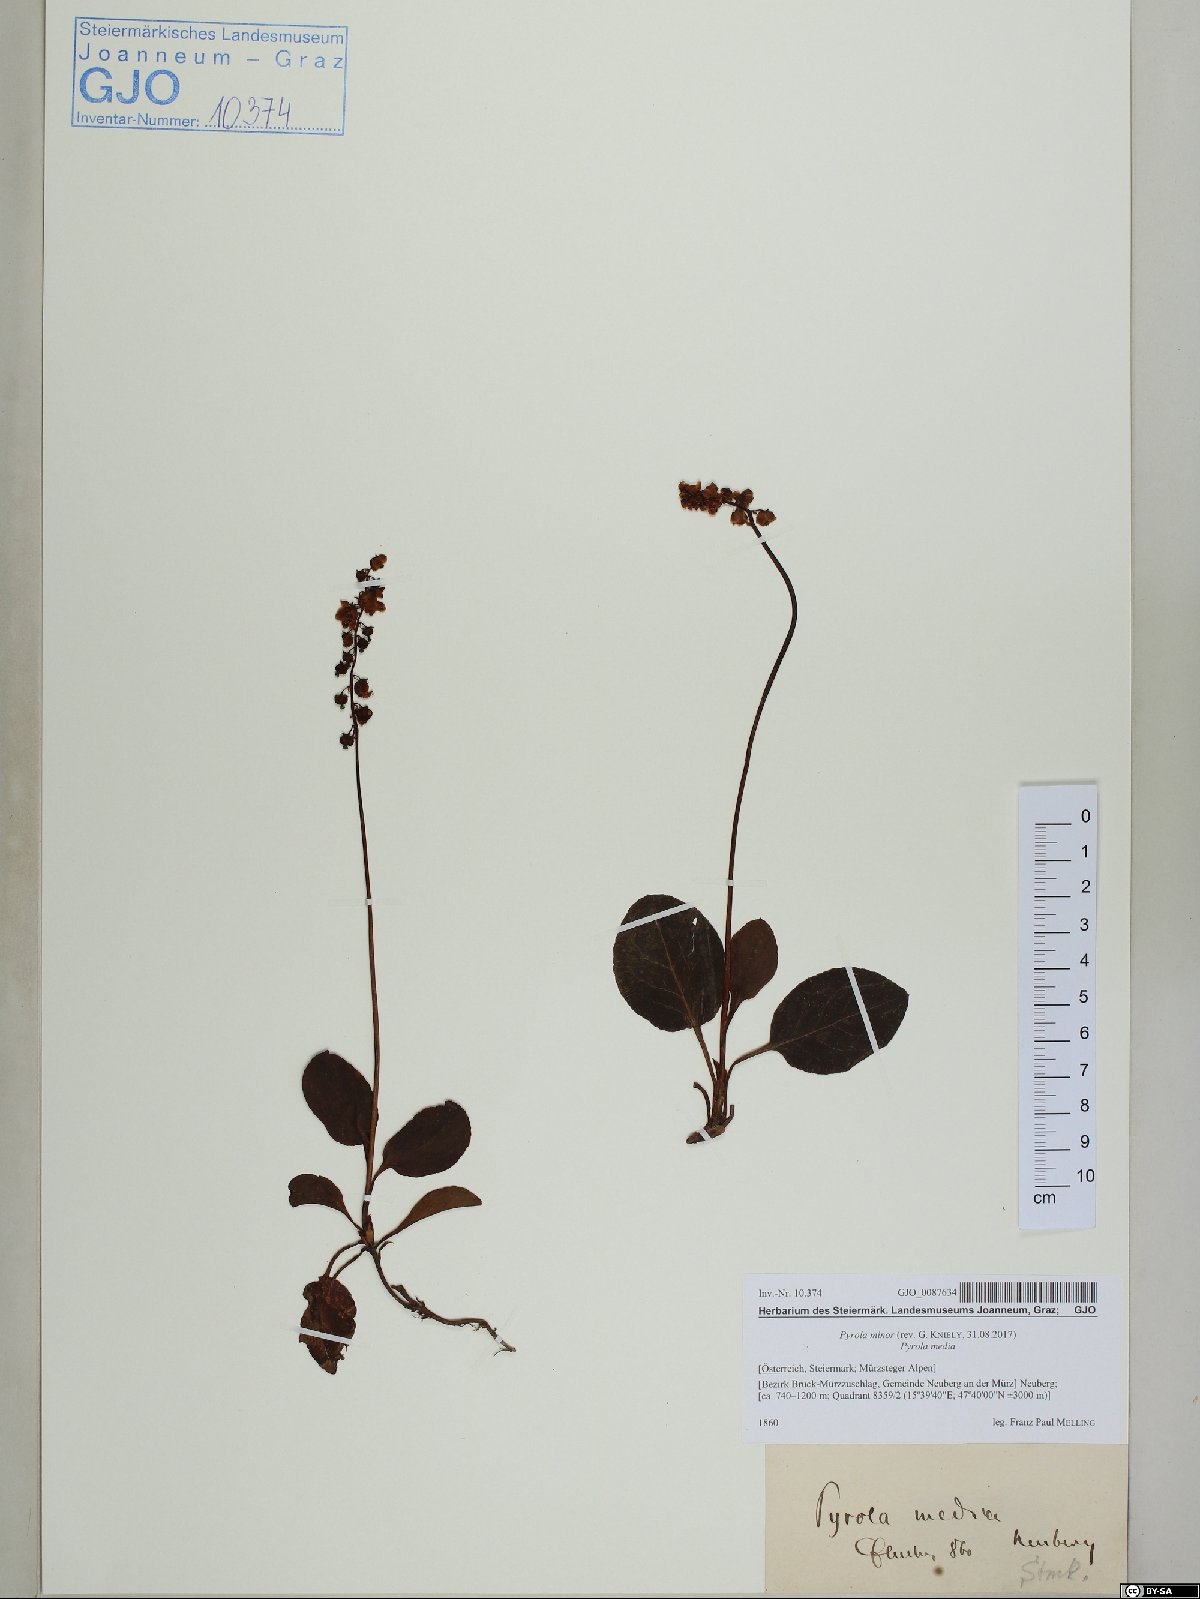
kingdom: Plantae
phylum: Tracheophyta
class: Magnoliopsida
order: Ericales
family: Ericaceae
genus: Pyrola
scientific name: Pyrola minor
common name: Common wintergreen
